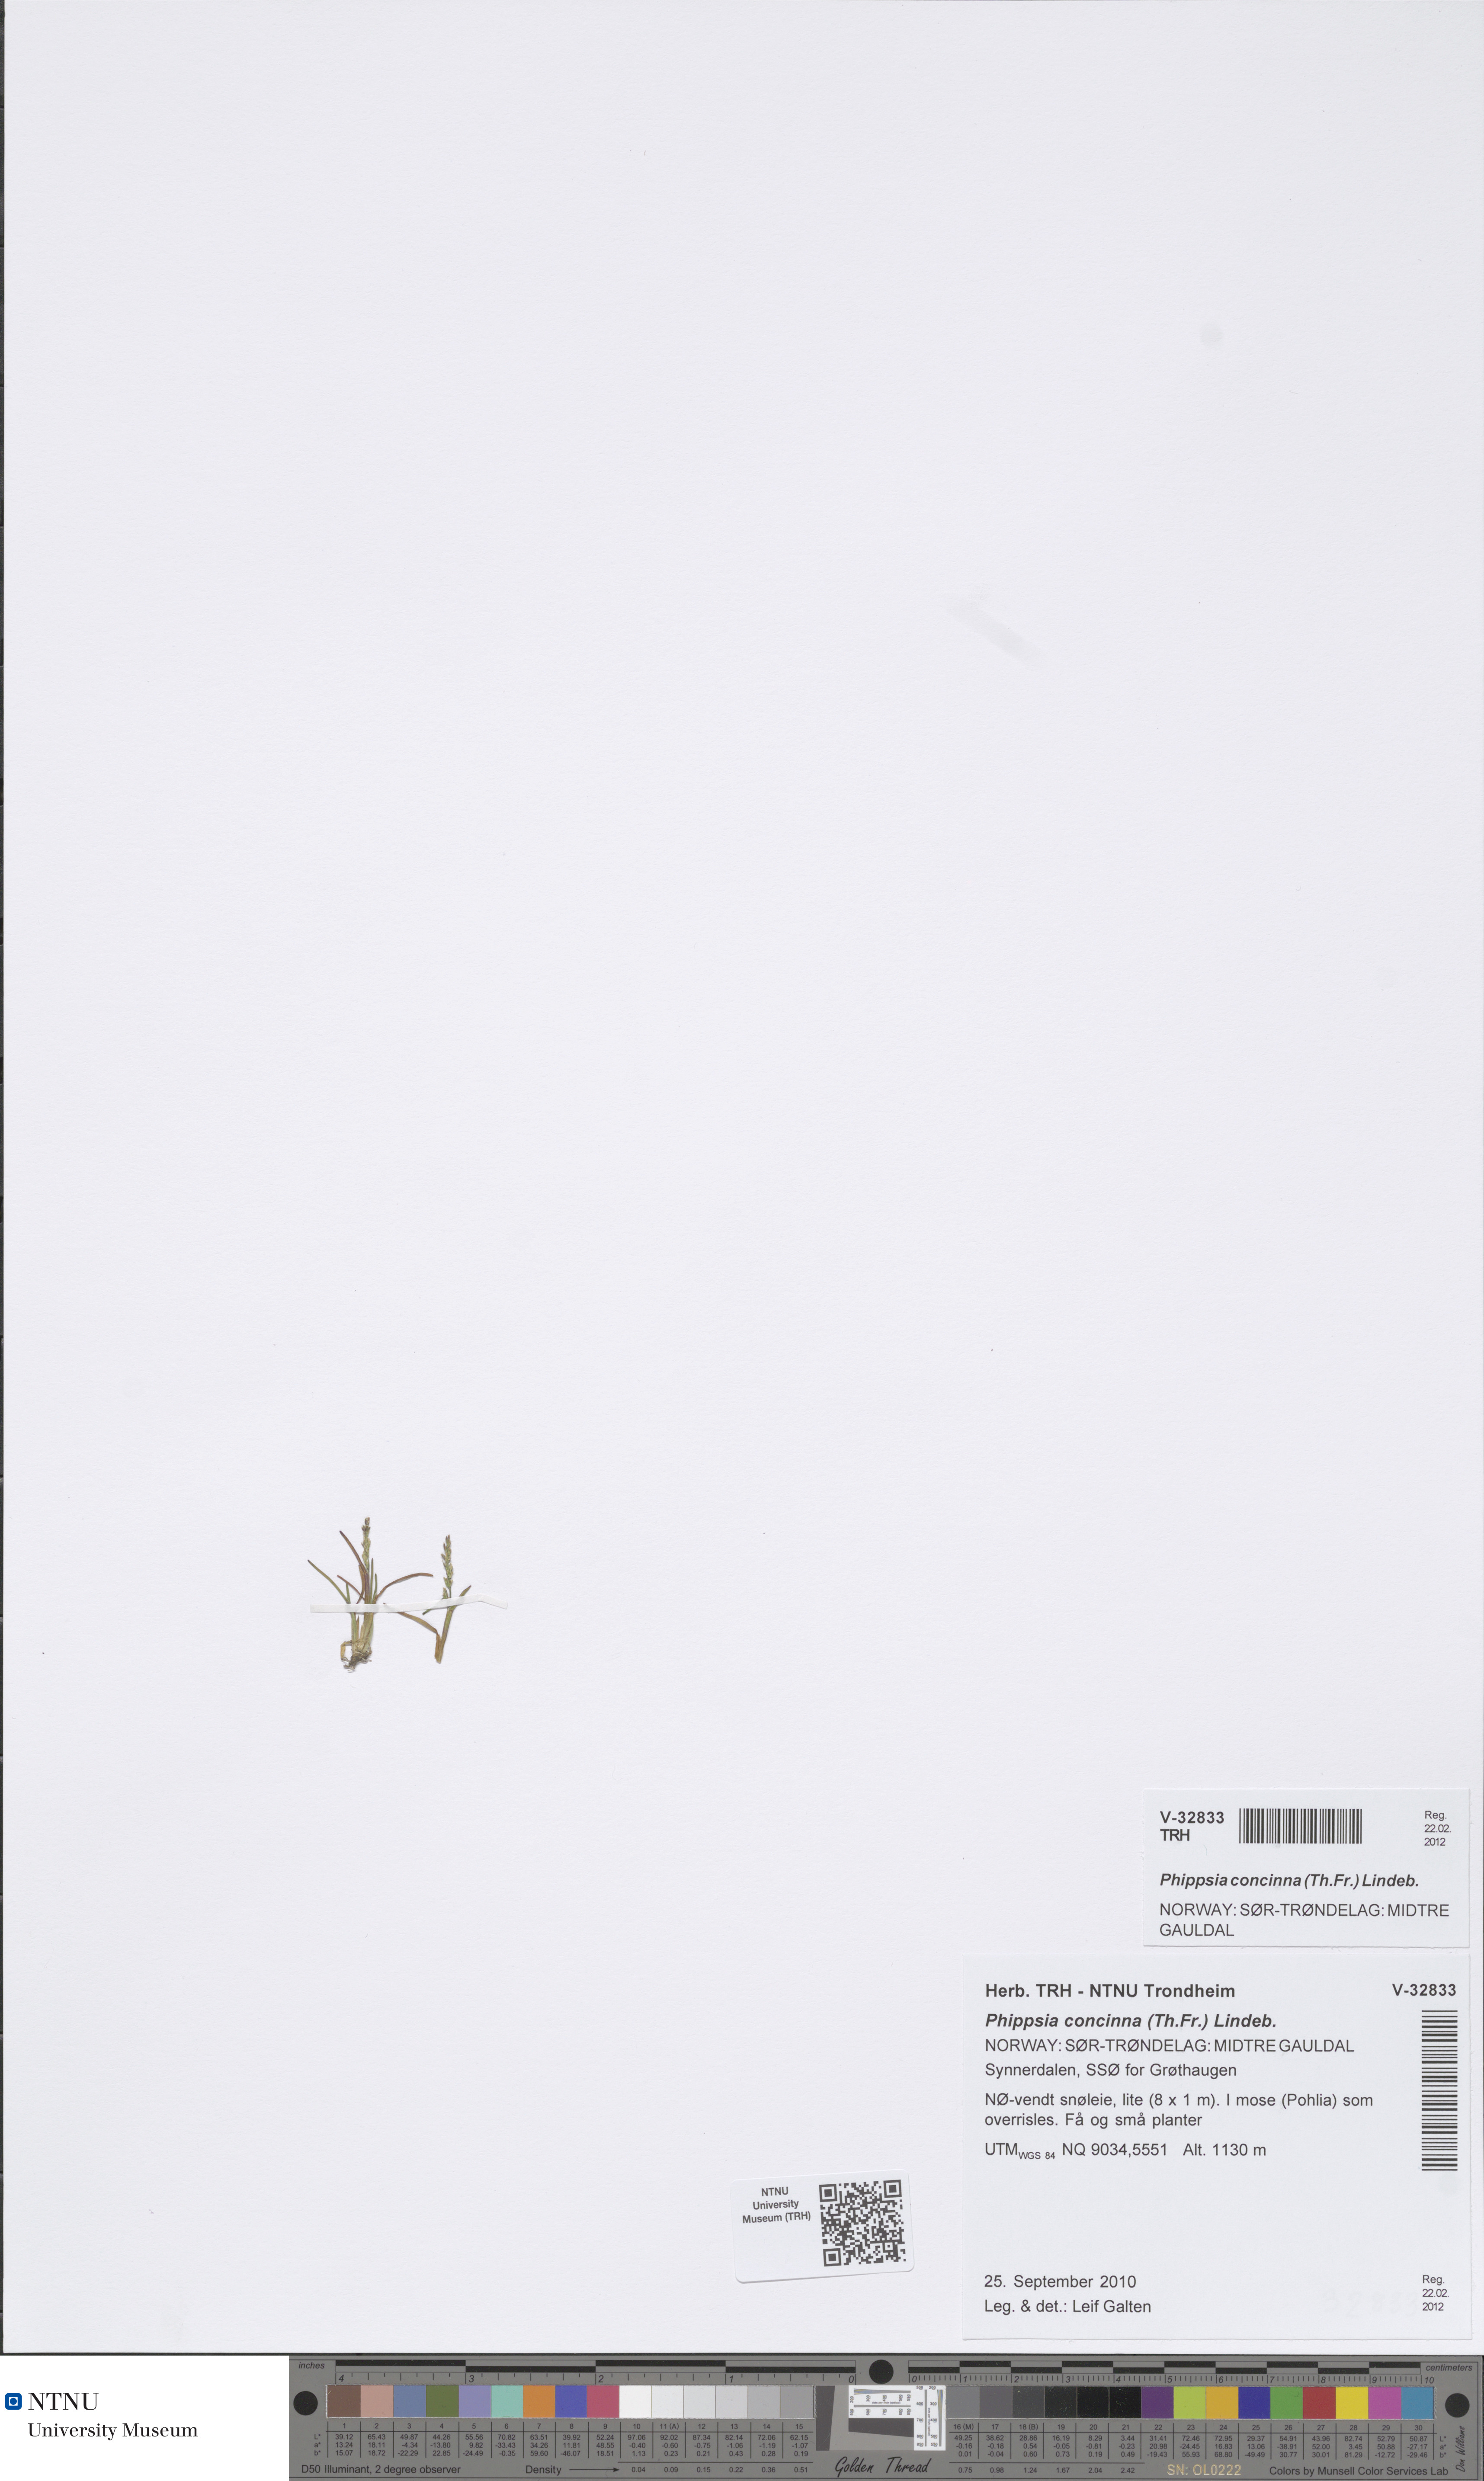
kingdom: Plantae
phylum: Tracheophyta
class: Liliopsida
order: Poales
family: Poaceae
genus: Phippsia
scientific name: Phippsia concinna
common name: Snowgrass
